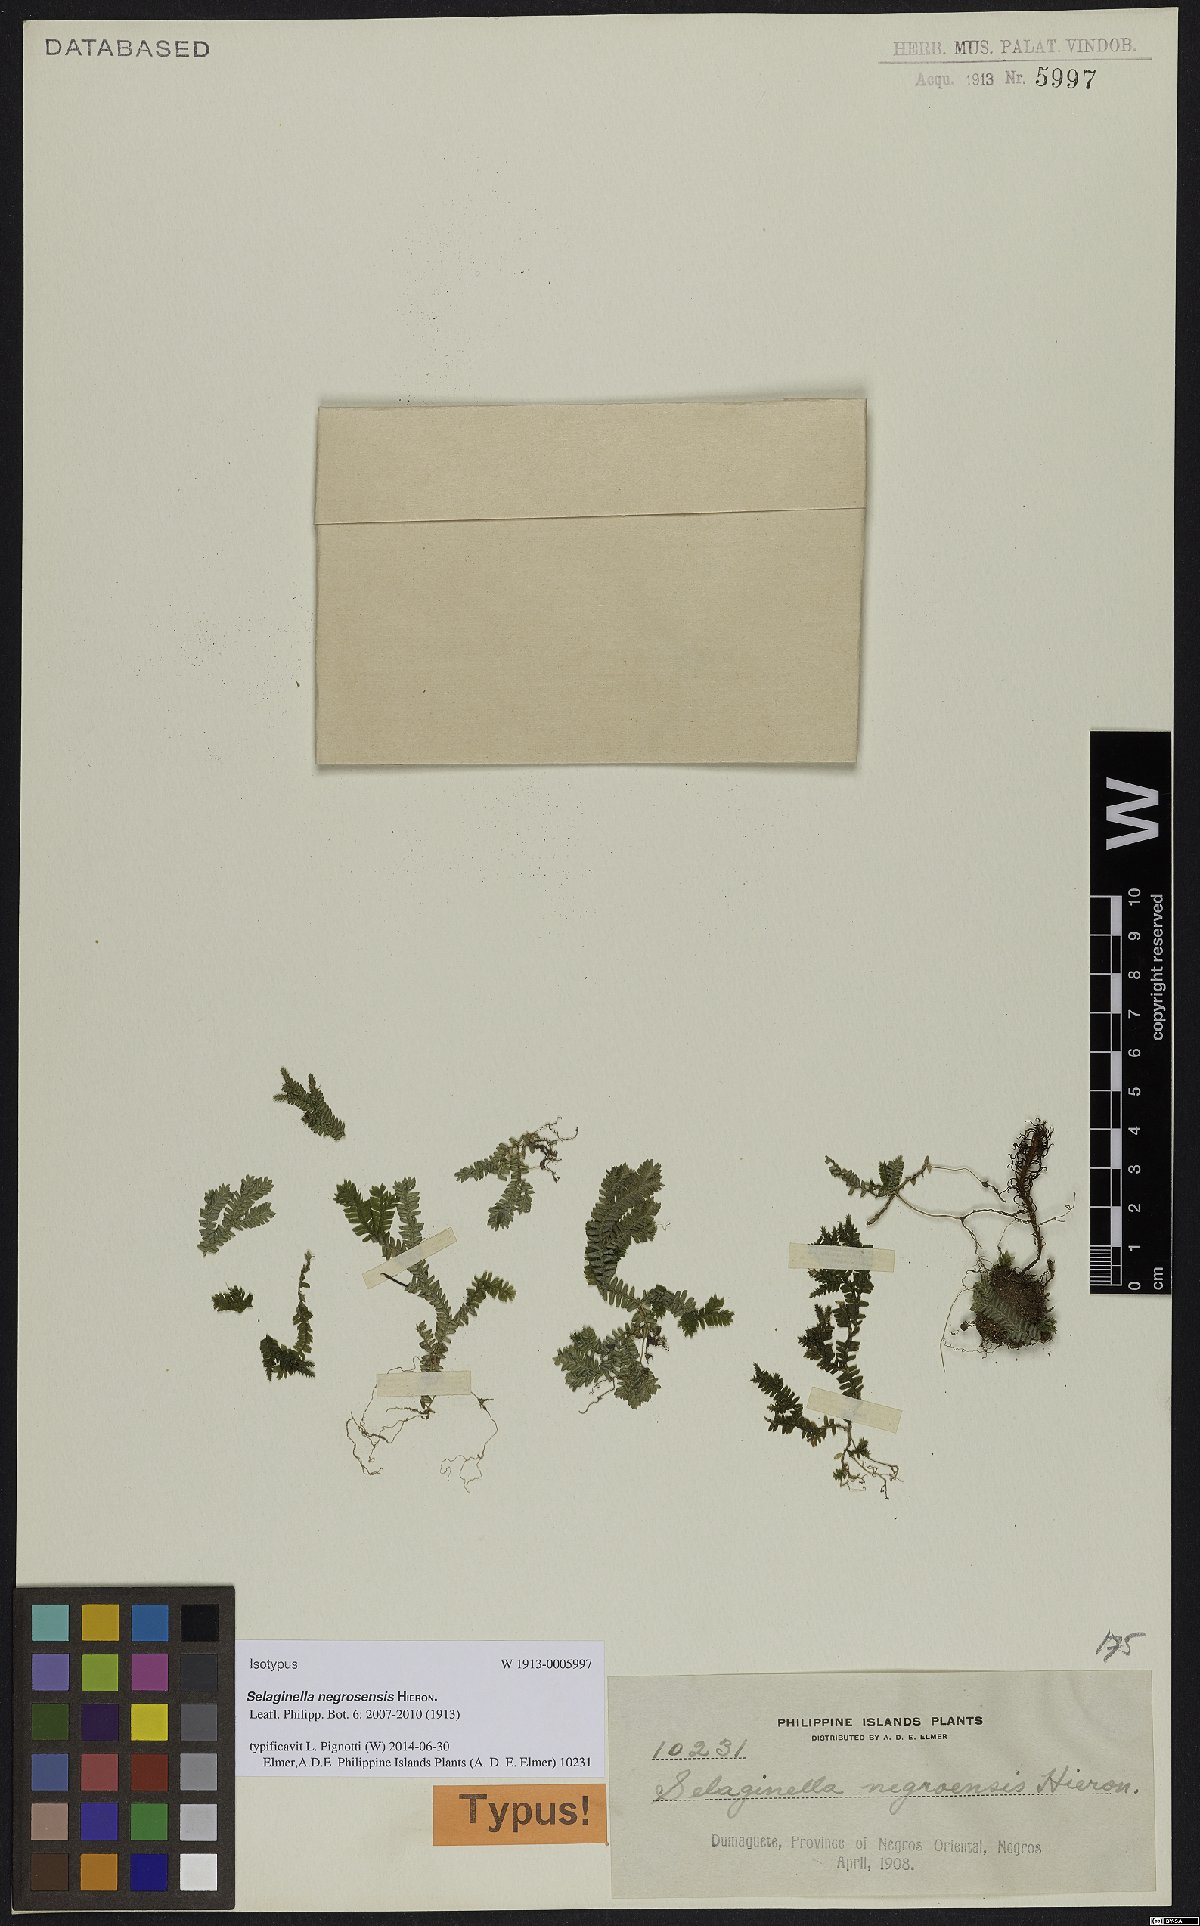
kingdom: Plantae
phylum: Tracheophyta
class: Lycopodiopsida
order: Selaginellales
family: Selaginellaceae
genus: Selaginella
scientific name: Selaginella negrosensis
